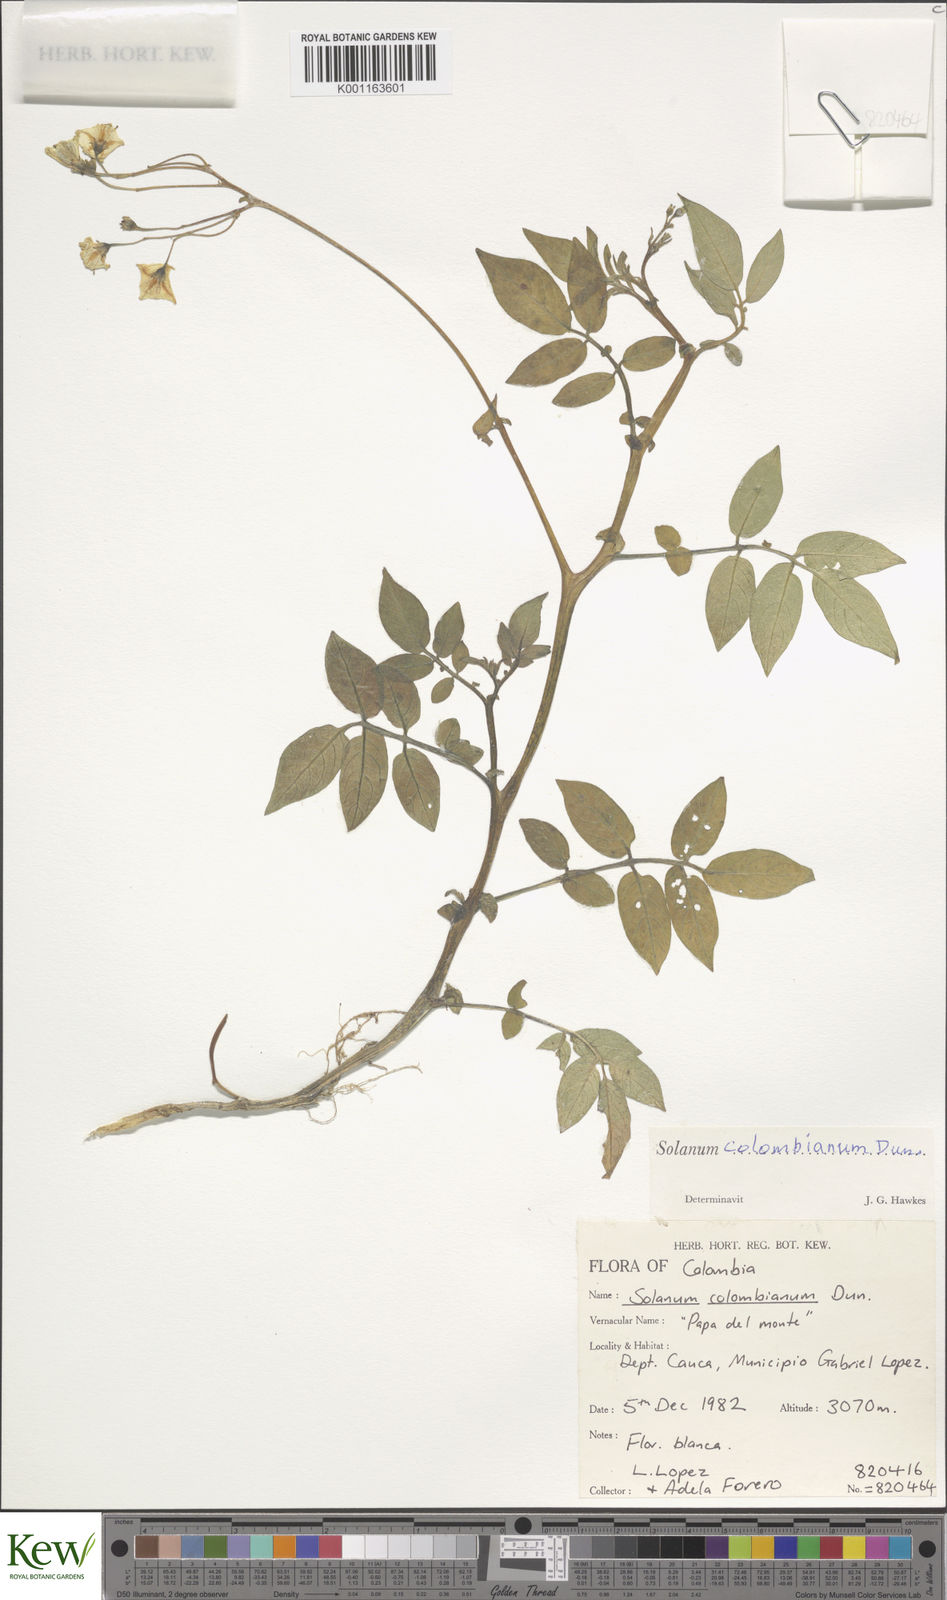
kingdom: Plantae
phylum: Tracheophyta
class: Magnoliopsida
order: Solanales
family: Solanaceae
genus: Solanum
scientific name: Solanum colombianum
